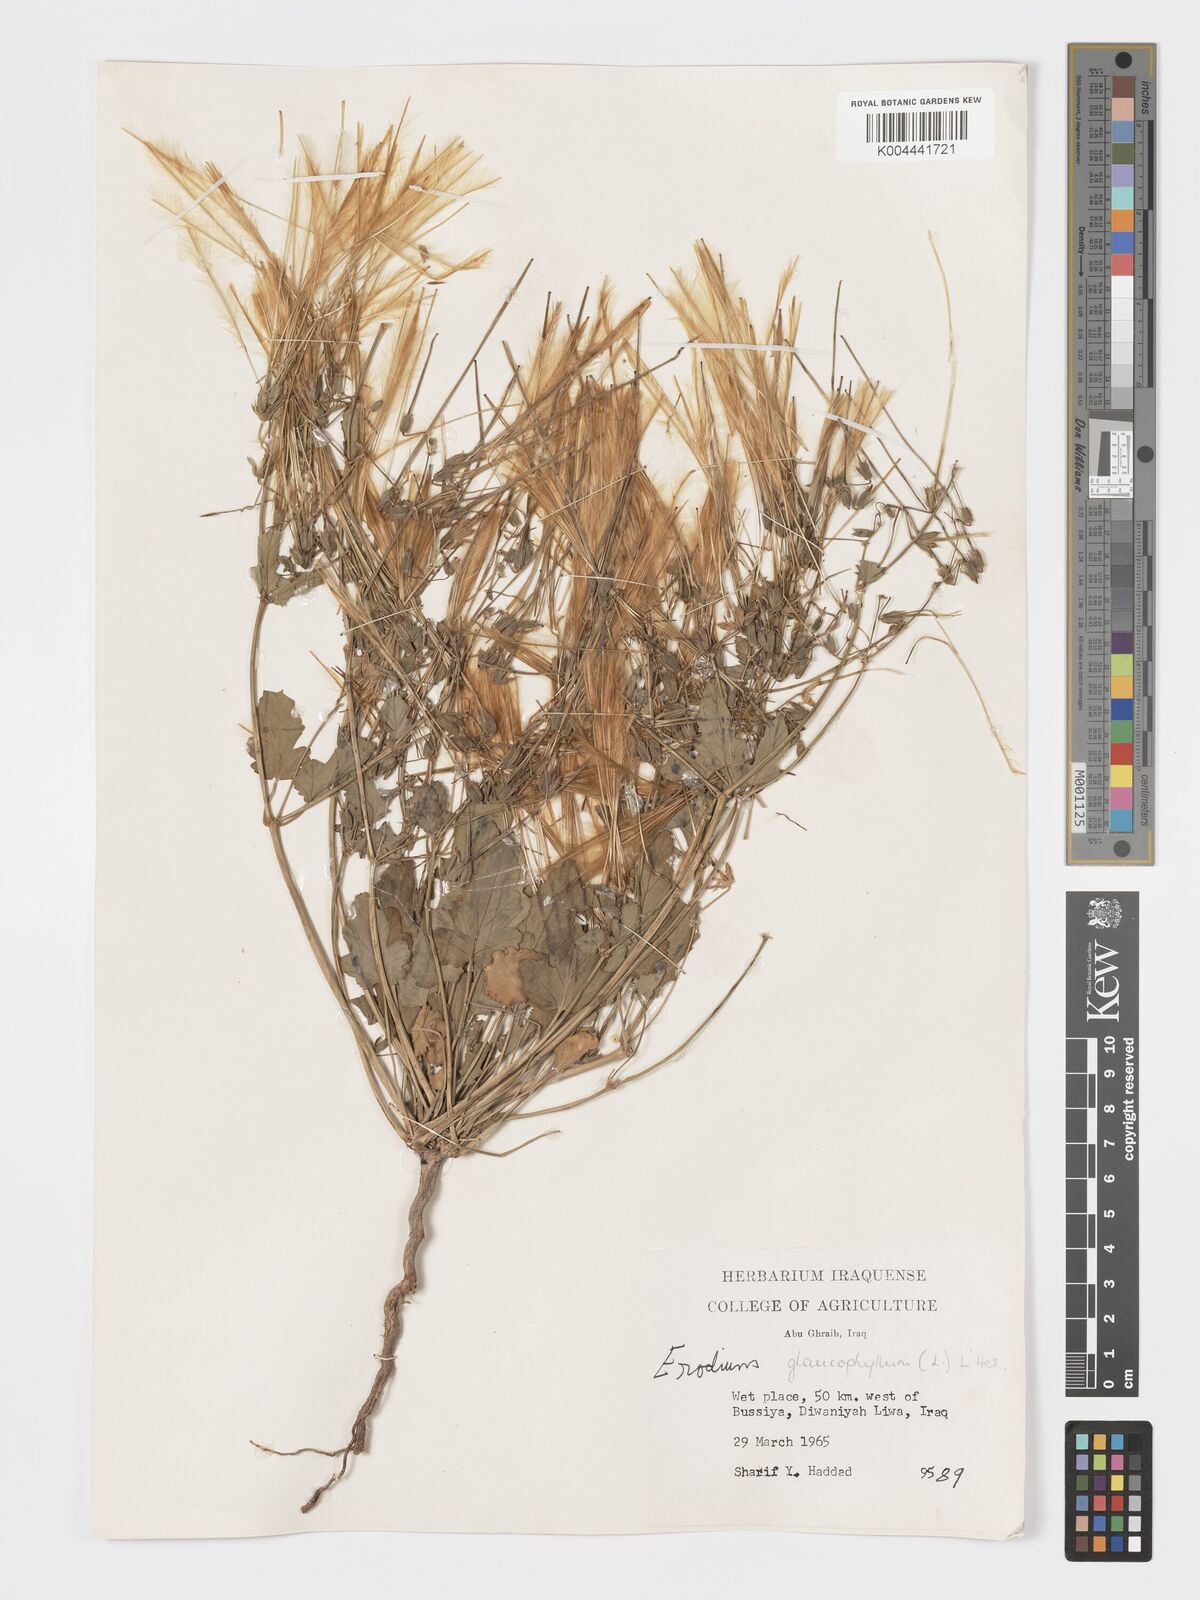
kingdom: Plantae
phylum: Tracheophyta
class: Magnoliopsida
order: Geraniales
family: Geraniaceae
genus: Erodium
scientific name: Erodium glaucophyllum
